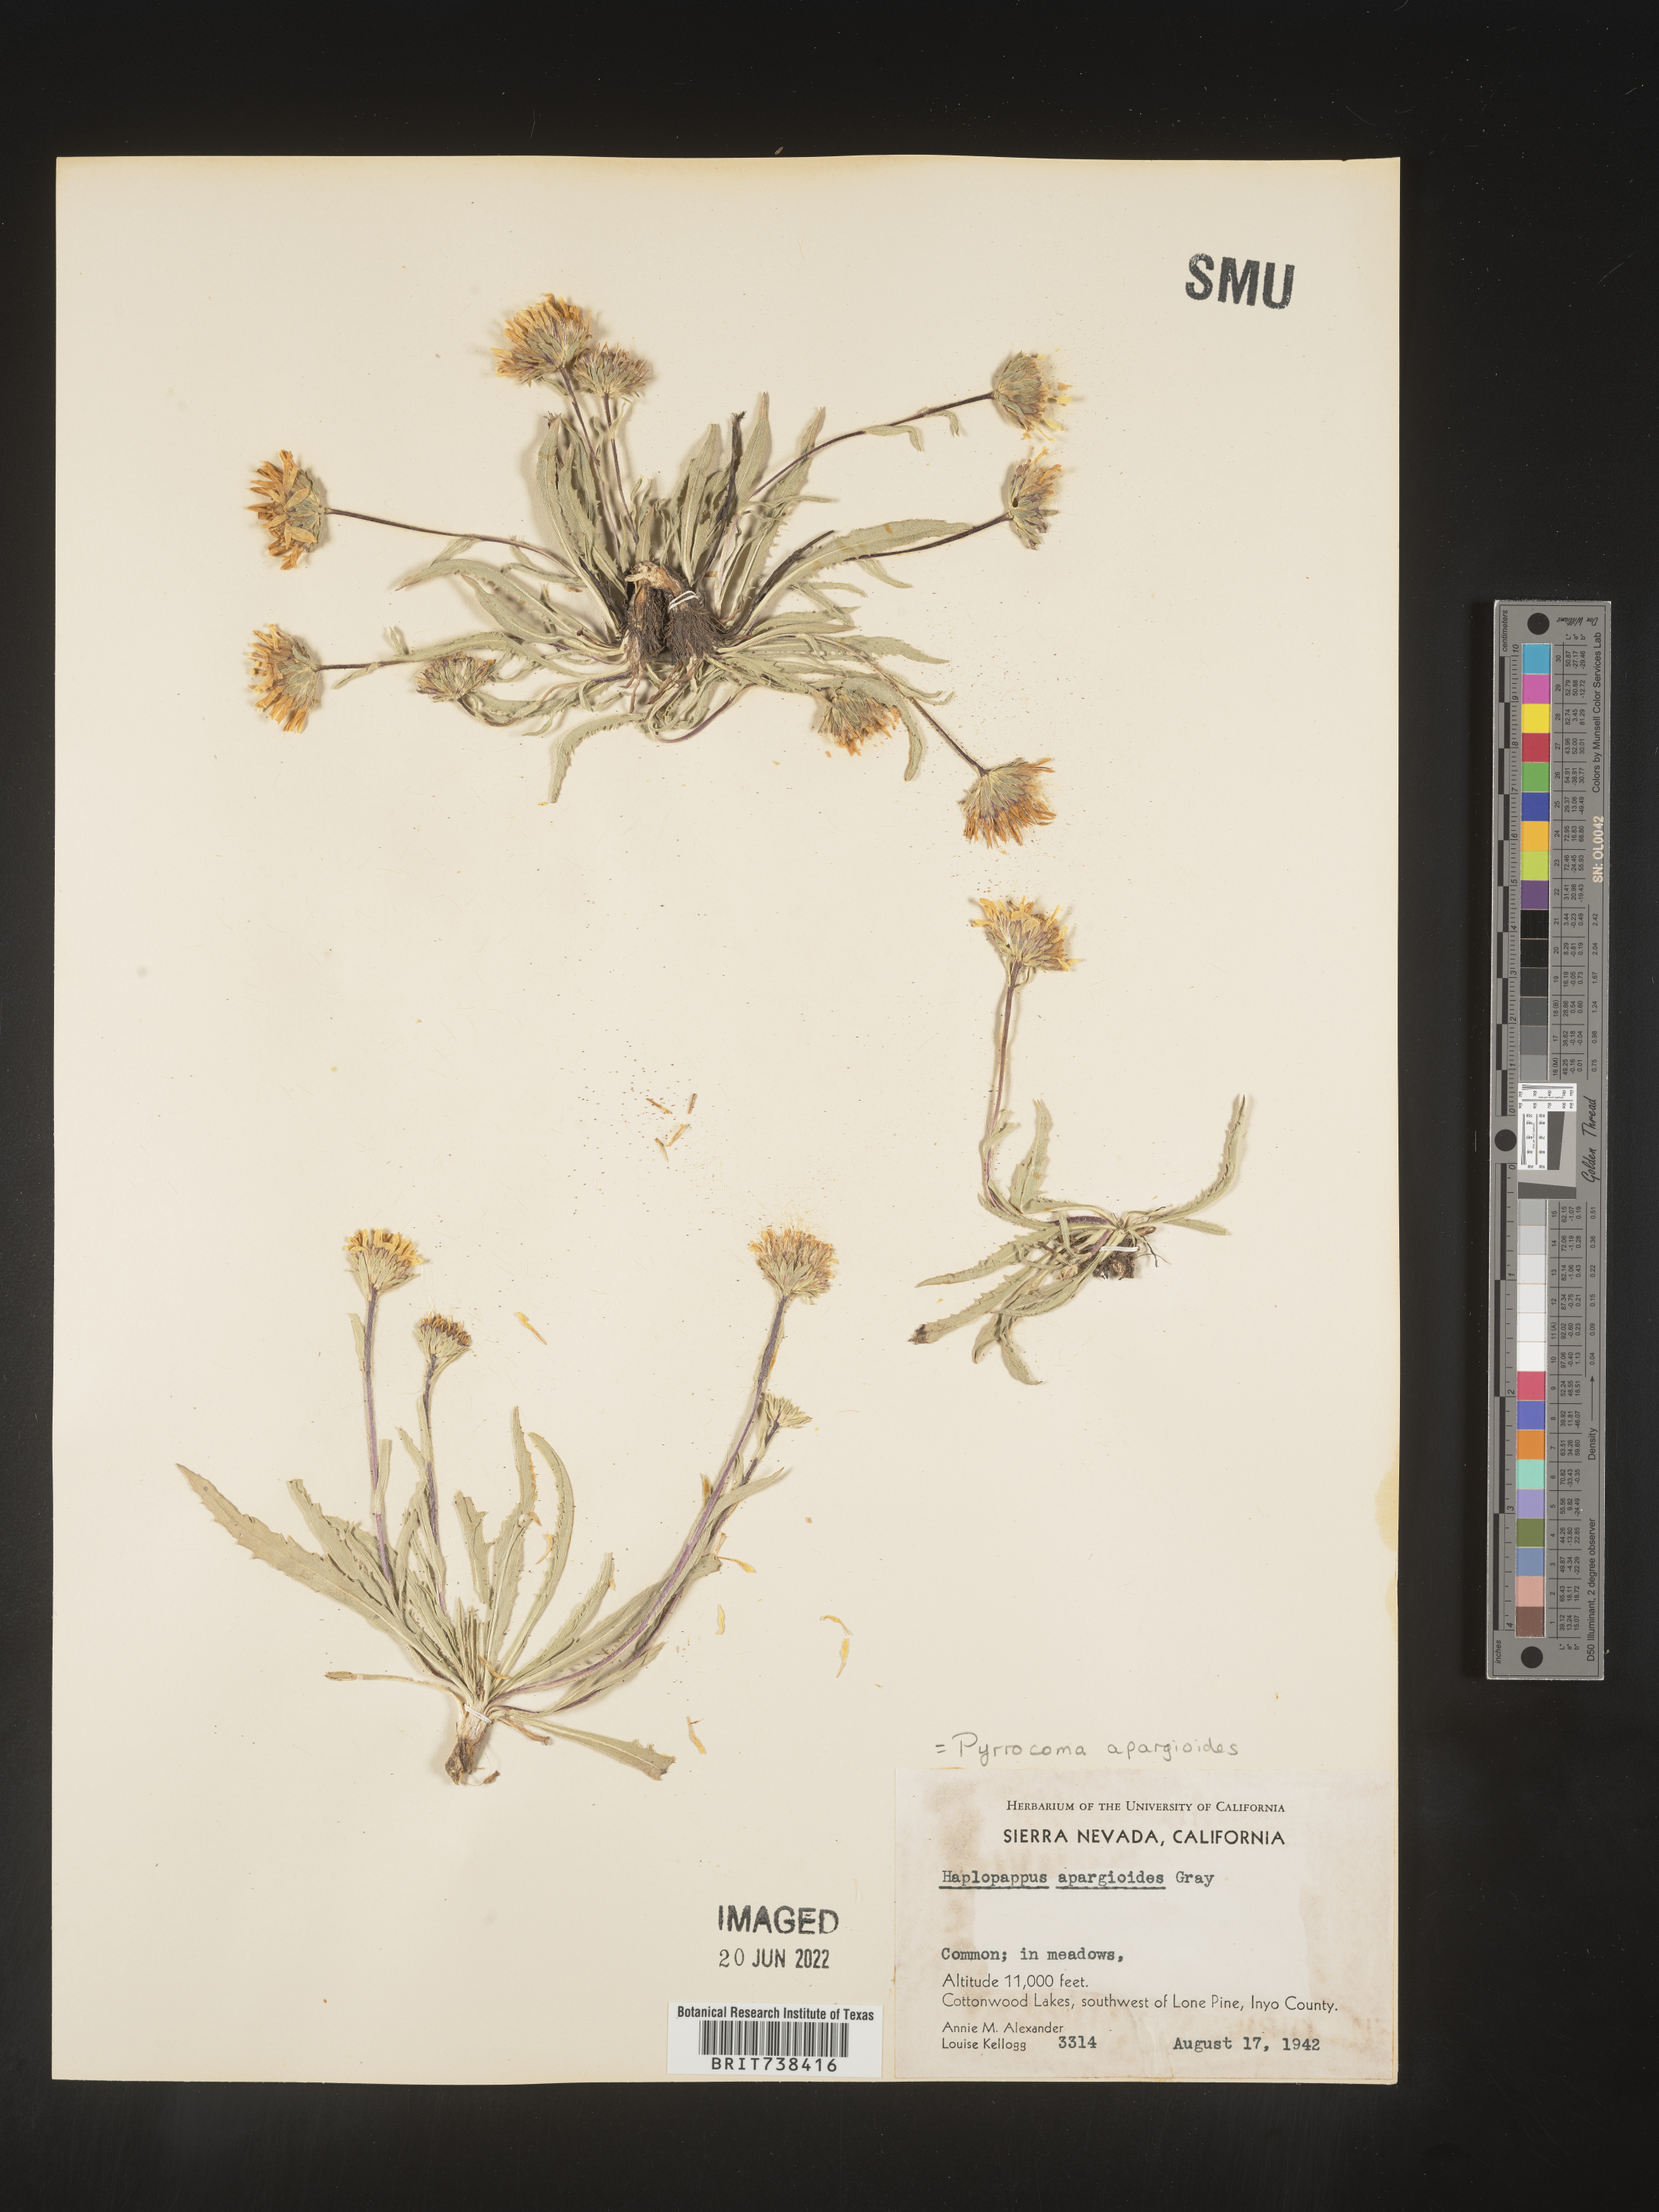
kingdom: Plantae
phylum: Tracheophyta
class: Magnoliopsida
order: Asterales
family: Asteraceae
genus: Pyrrocoma
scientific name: Pyrrocoma apargioides
